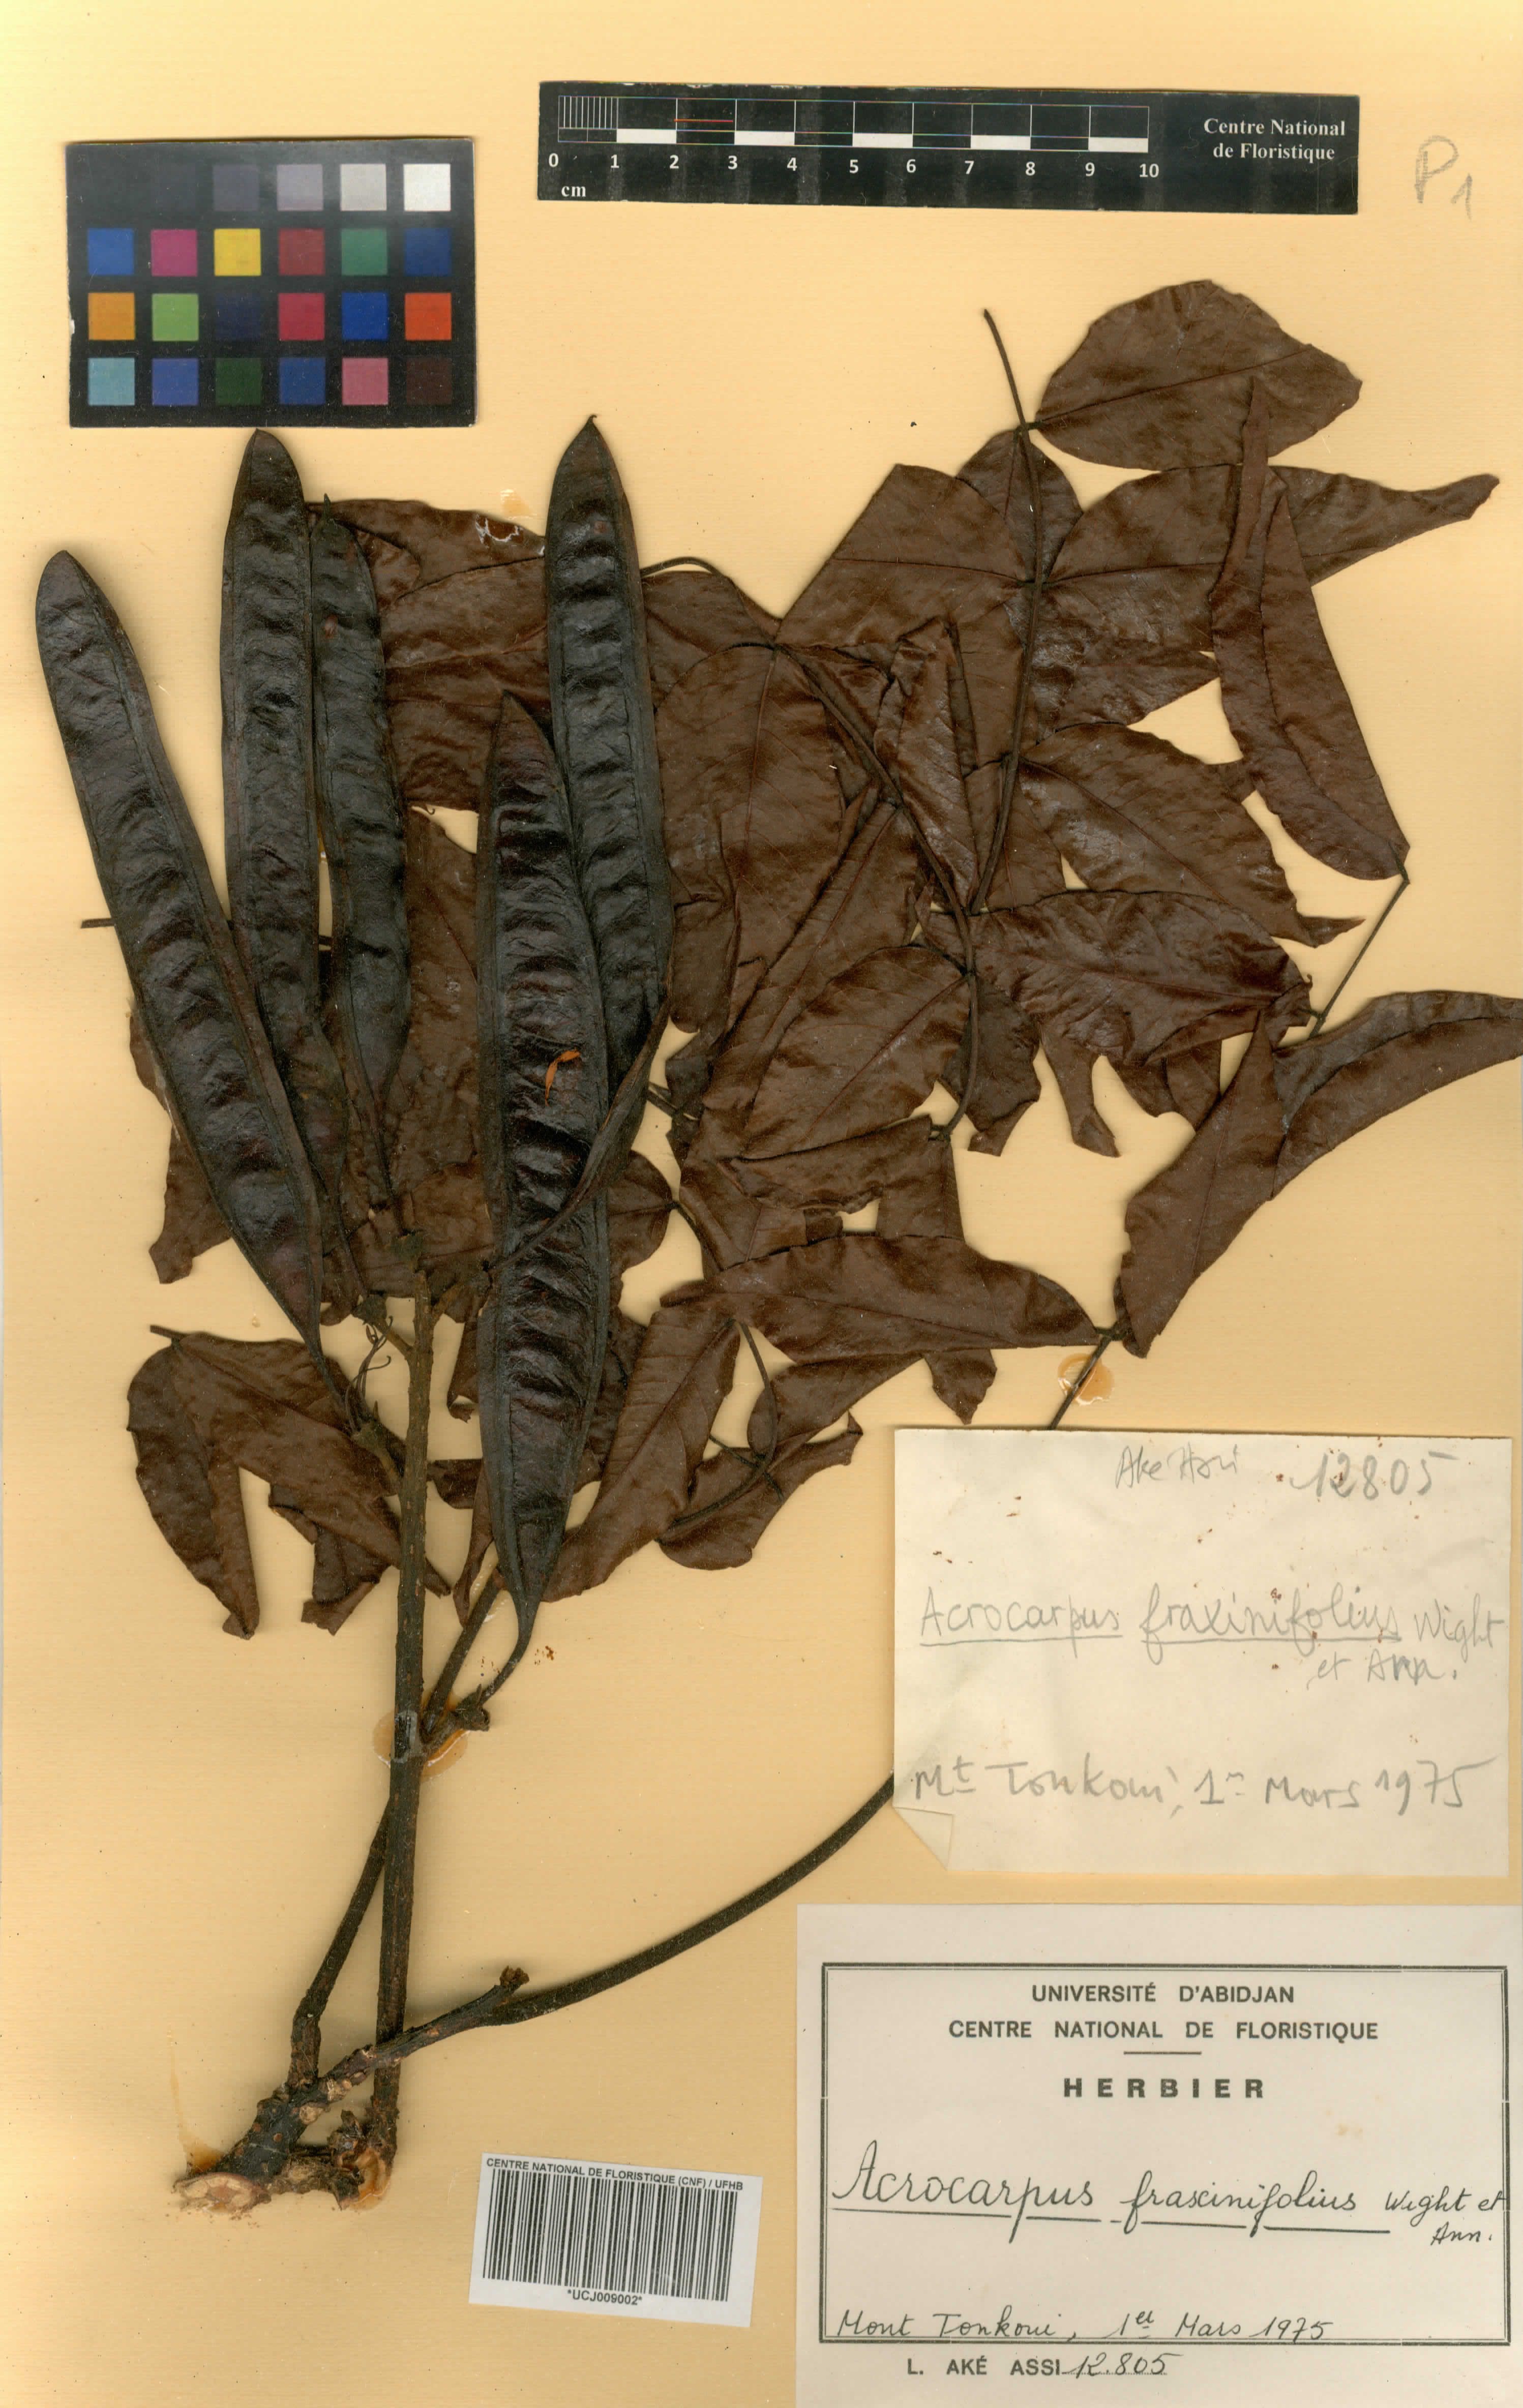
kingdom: Plantae
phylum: Tracheophyta
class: Magnoliopsida
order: Fabales
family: Fabaceae
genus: Acrocarpus
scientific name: Acrocarpus fraxinifolius
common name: Kenya coffeeshade
